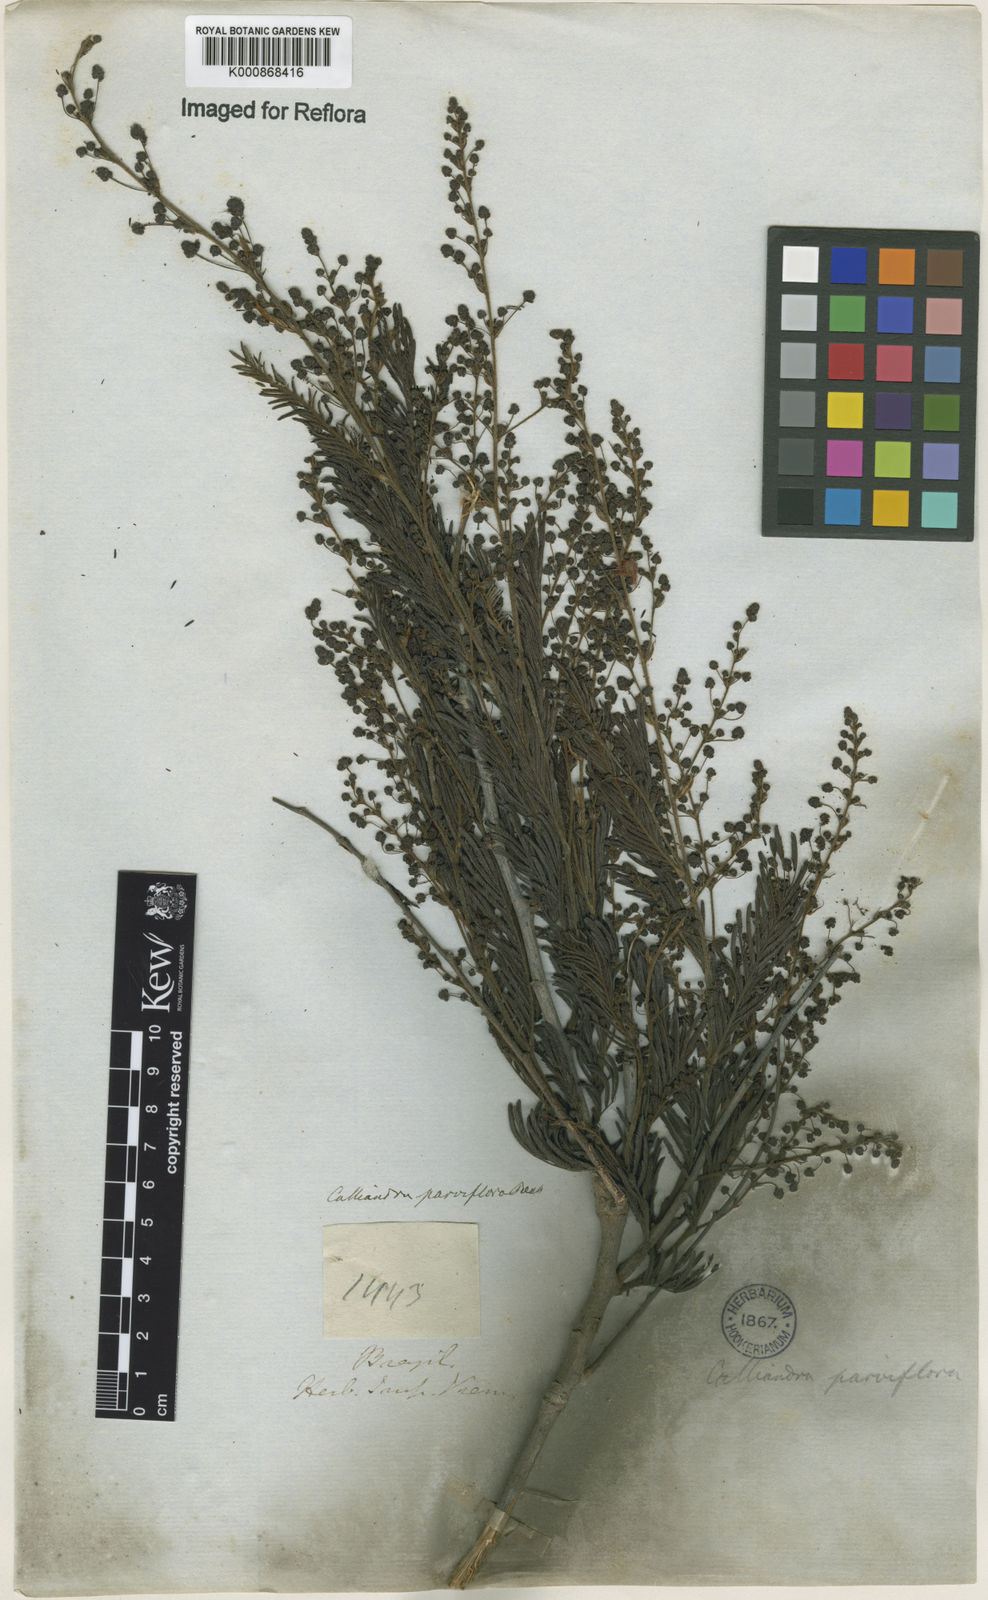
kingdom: Plantae
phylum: Tracheophyta
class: Magnoliopsida
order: Fabales
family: Fabaceae
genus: Calliandra
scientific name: Calliandra parviflora
